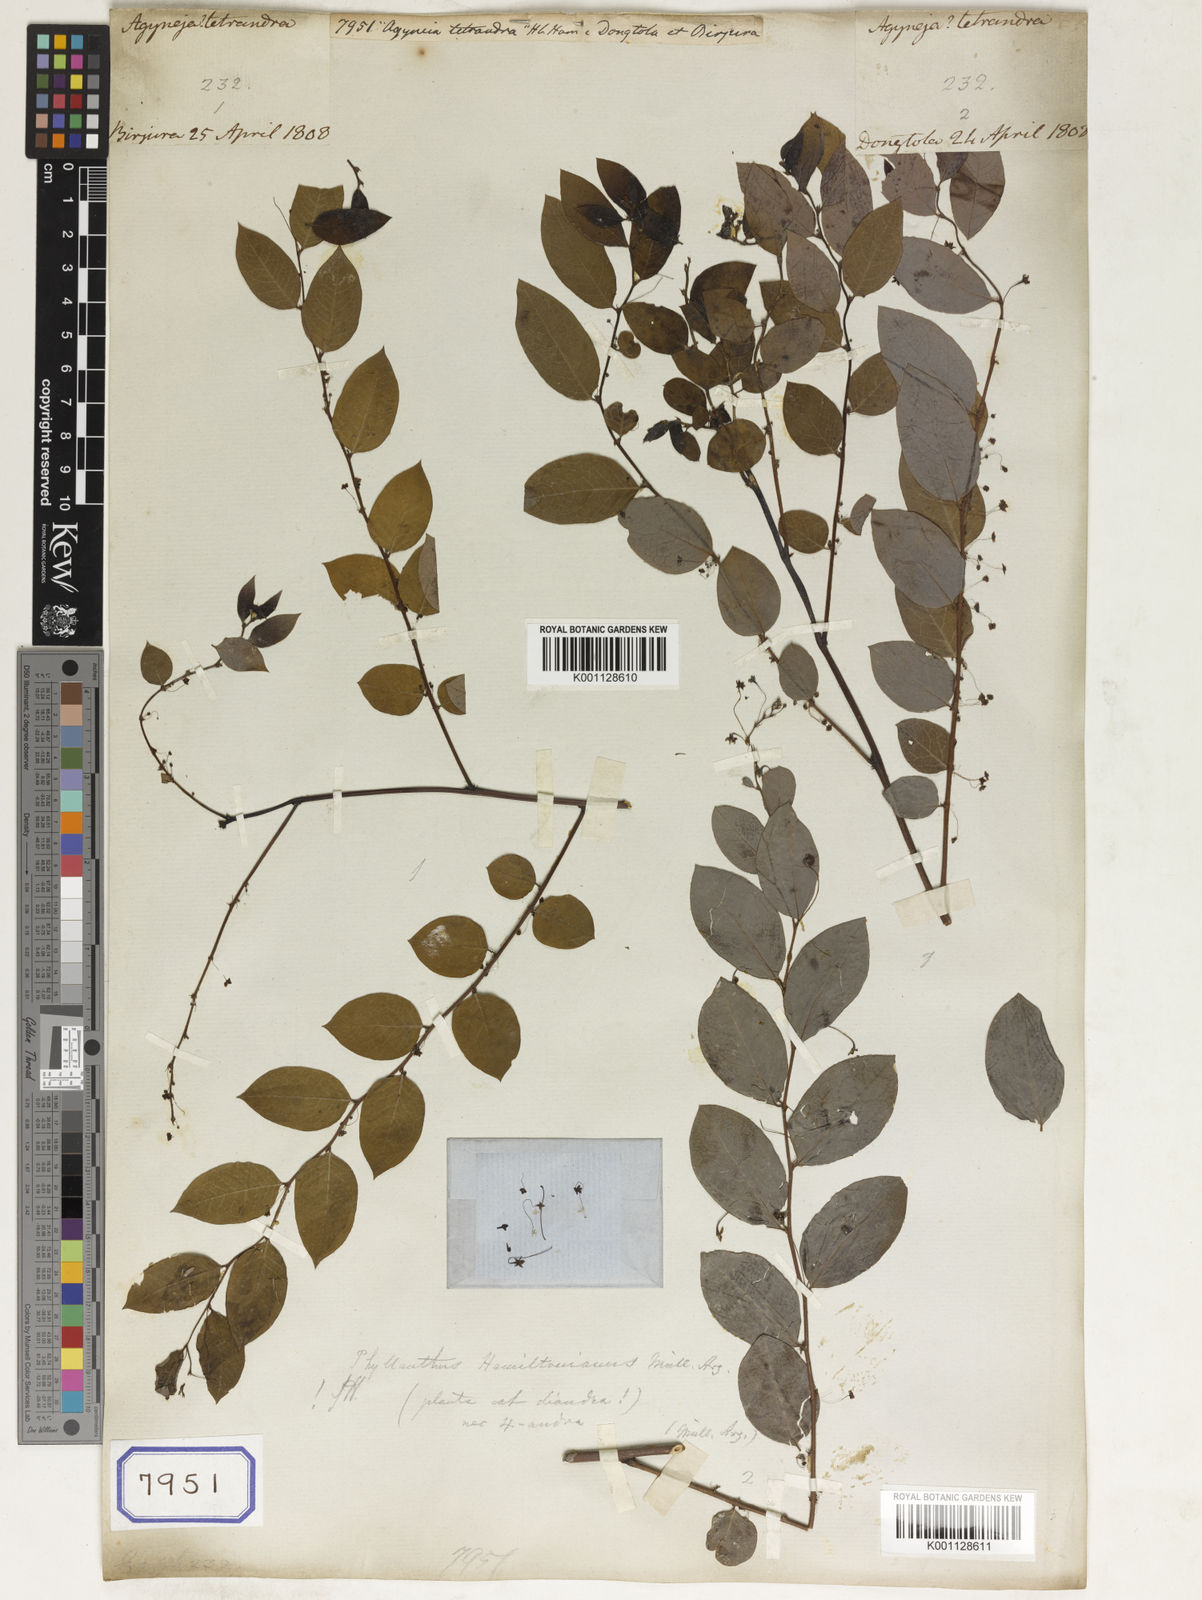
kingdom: Plantae
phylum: Tracheophyta
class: Magnoliopsida
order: Malpighiales
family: Euphorbiaceae
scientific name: Euphorbiaceae
